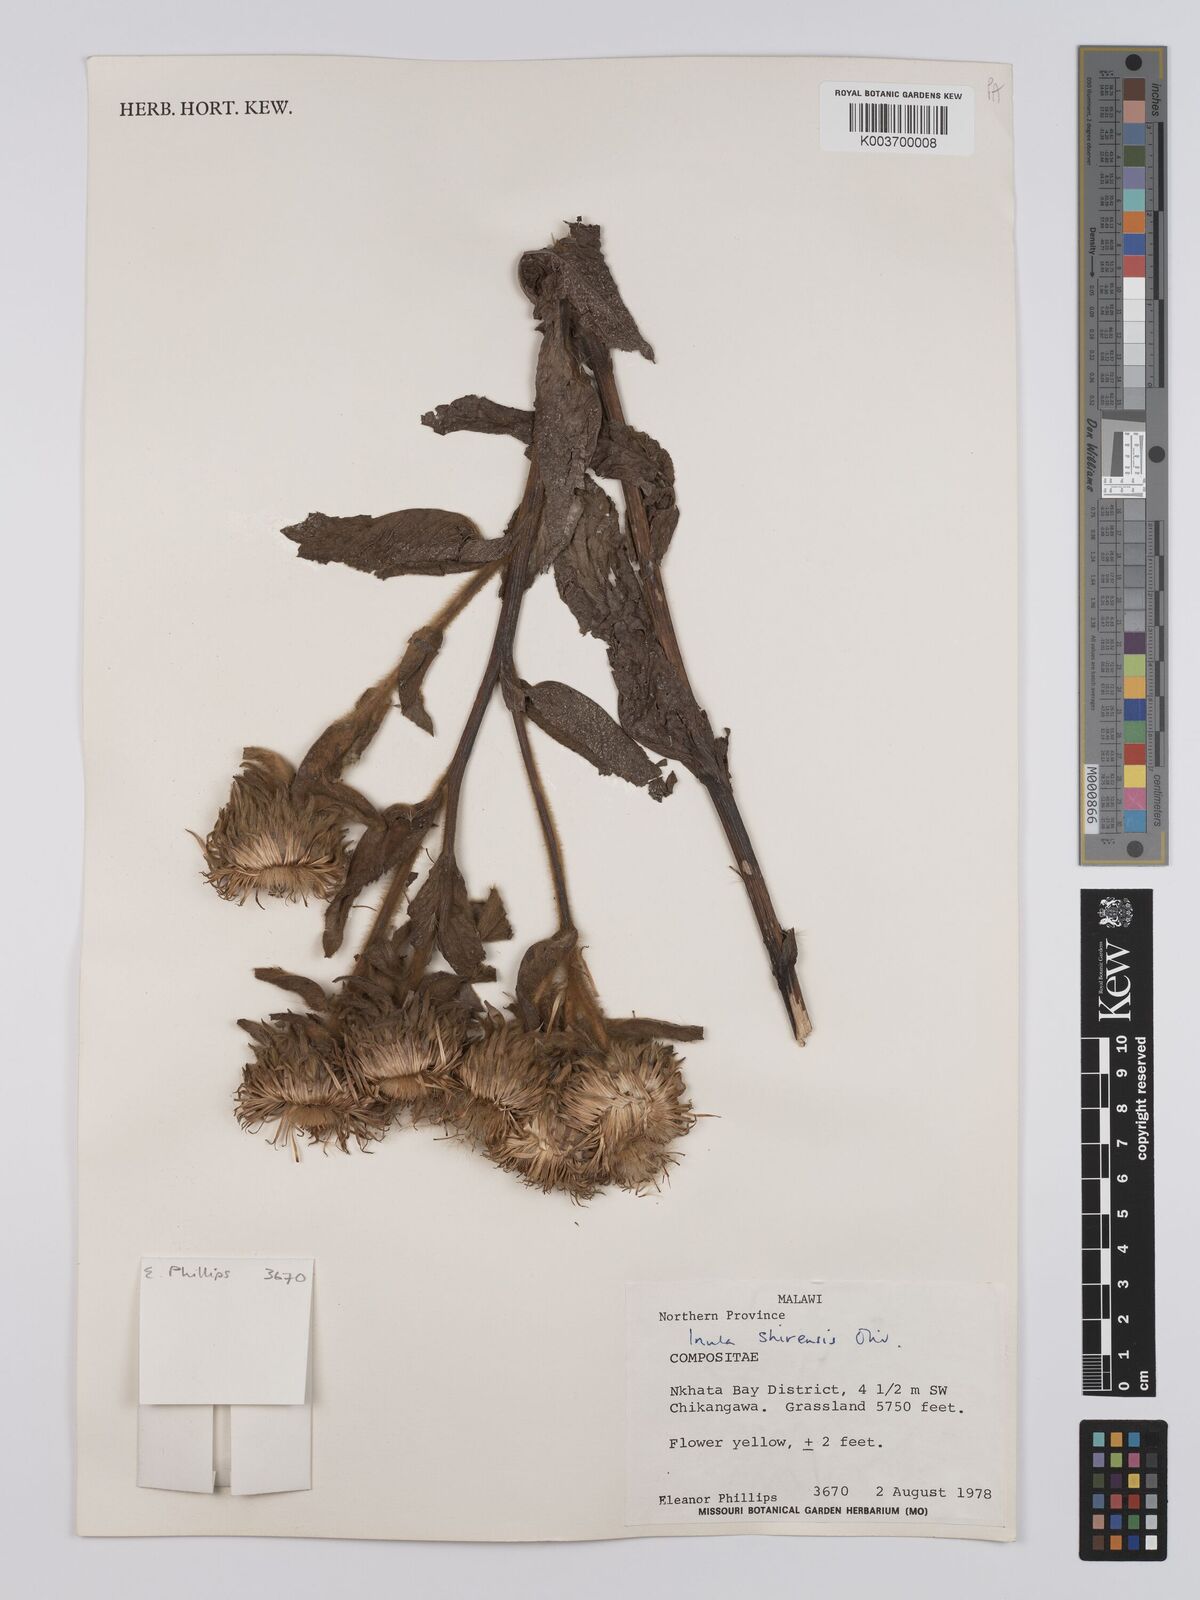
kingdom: Plantae
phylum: Tracheophyta
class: Magnoliopsida
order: Asterales
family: Asteraceae
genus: Monactinocephalus
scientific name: Monactinocephalus shirensis
